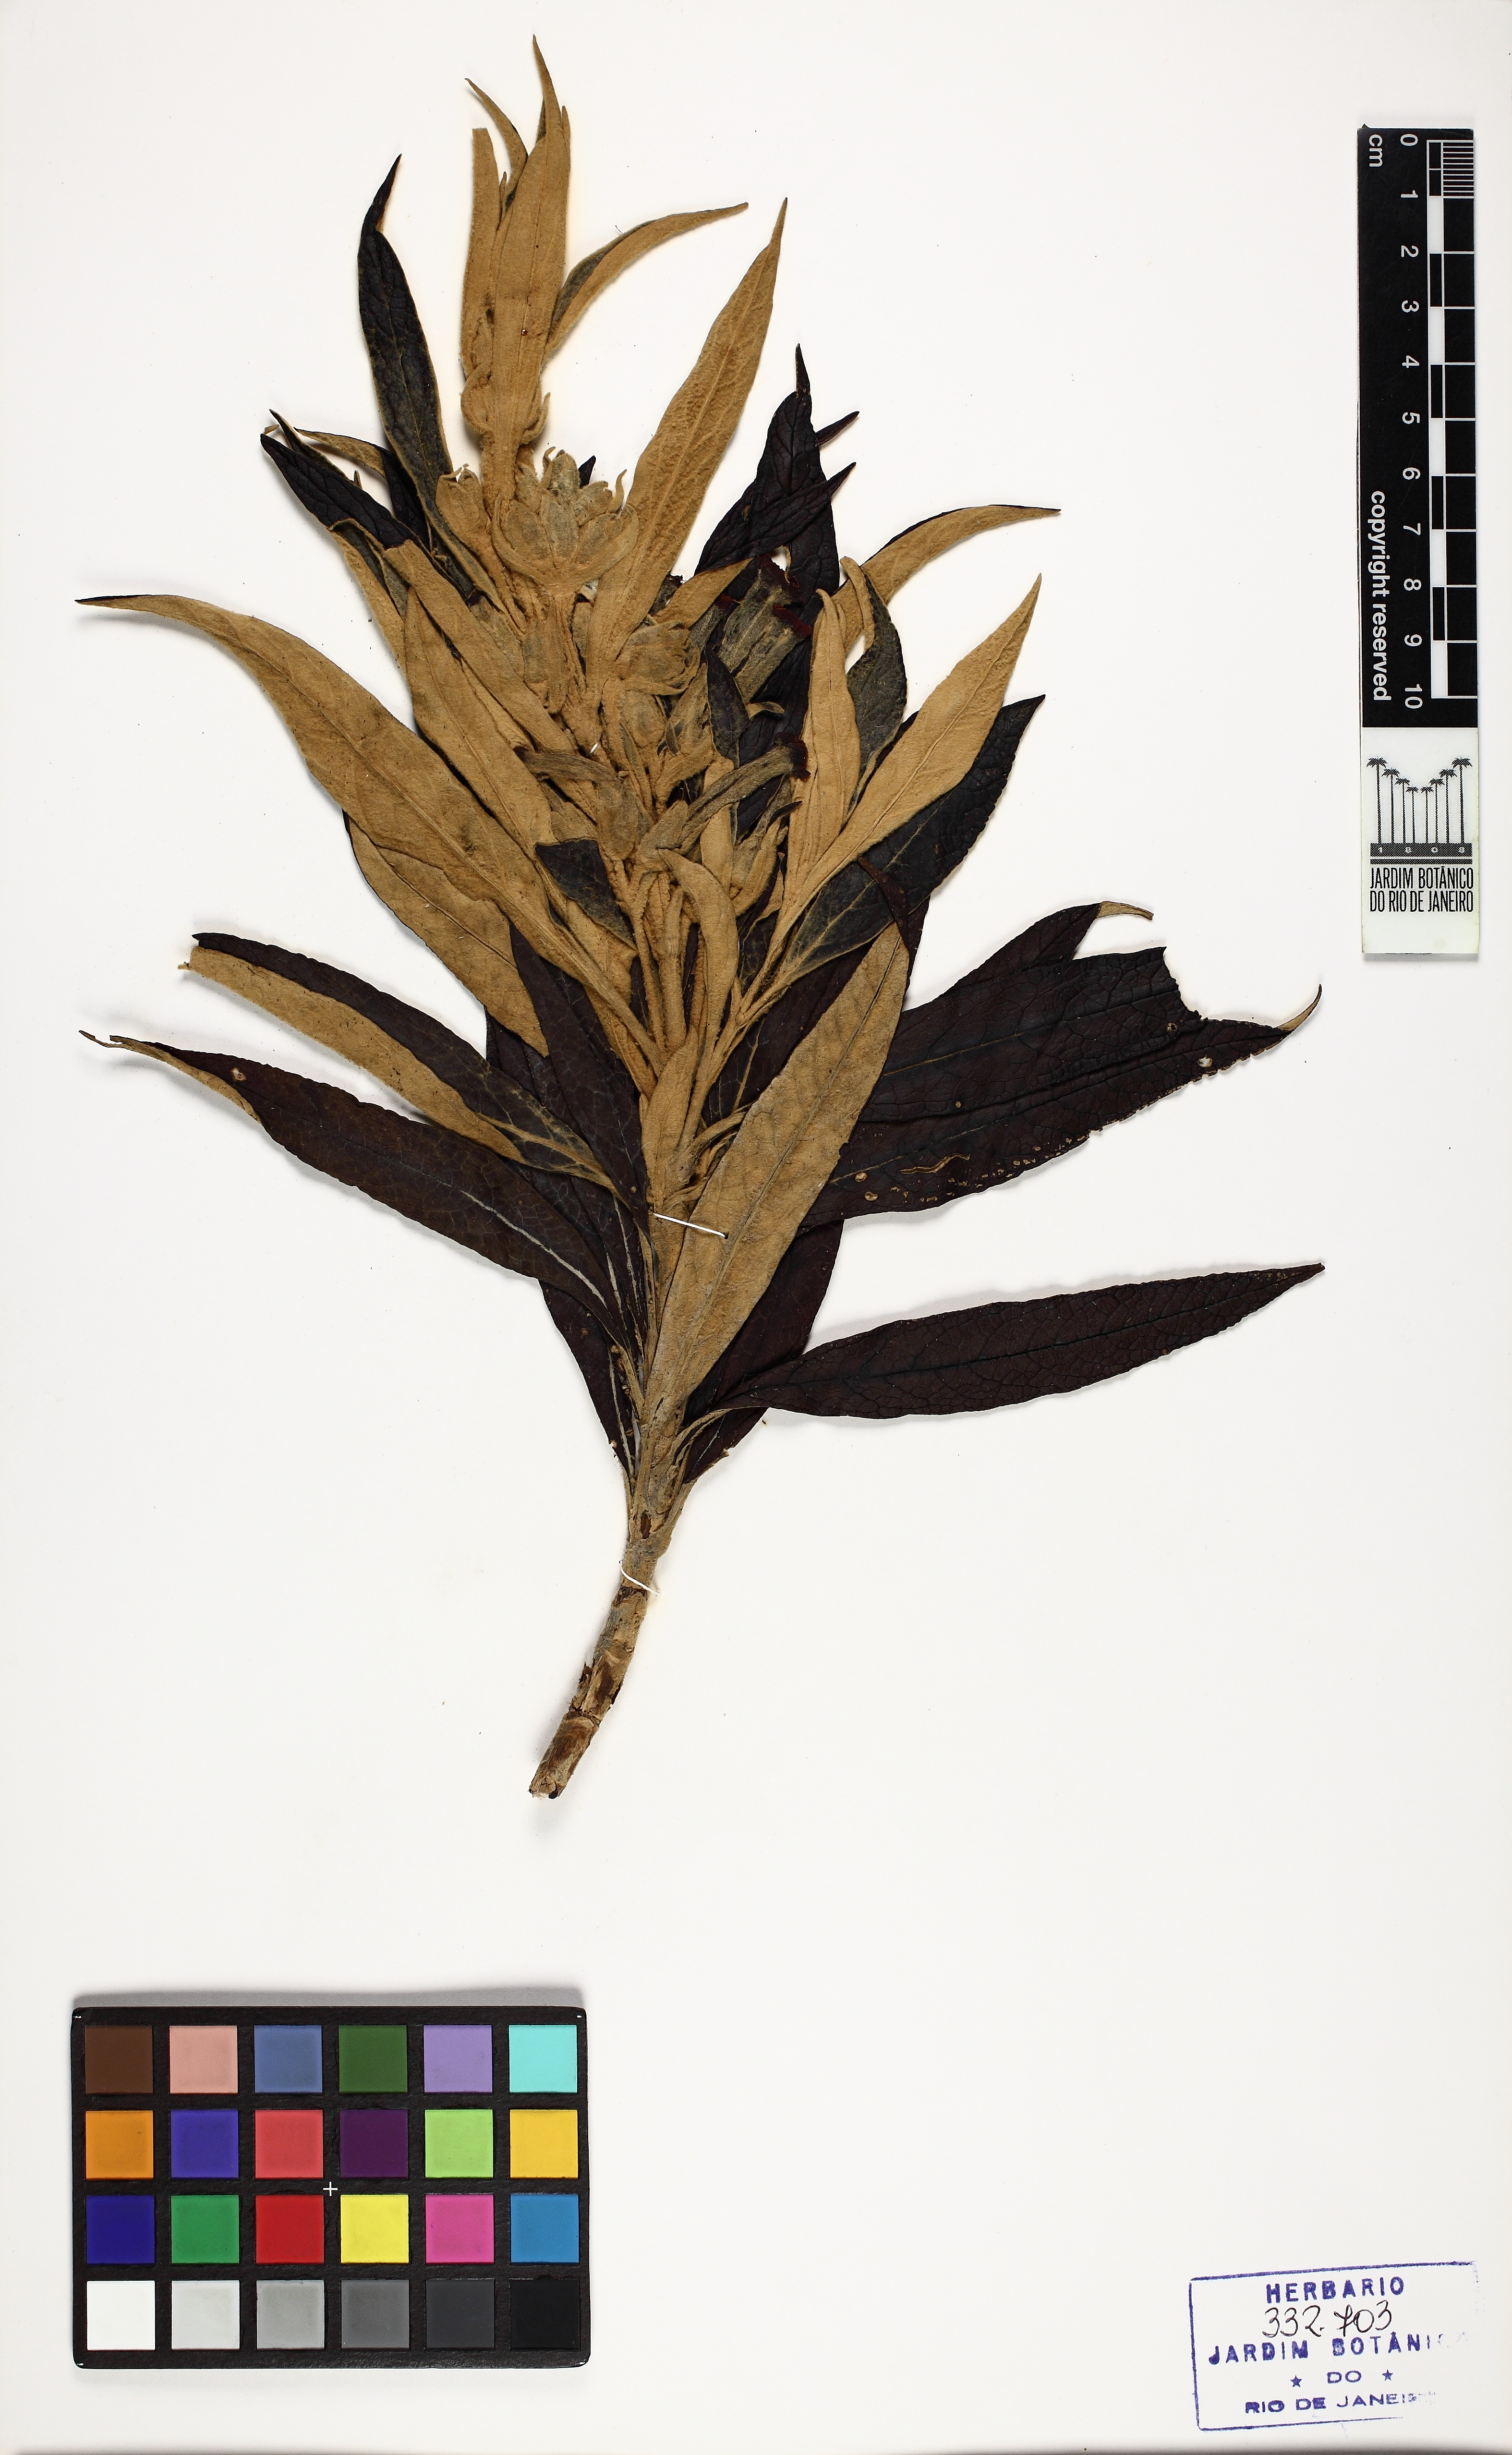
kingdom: Plantae
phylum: Tracheophyta
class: Magnoliopsida
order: Lamiales
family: Verbenaceae
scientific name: Verbenaceae
